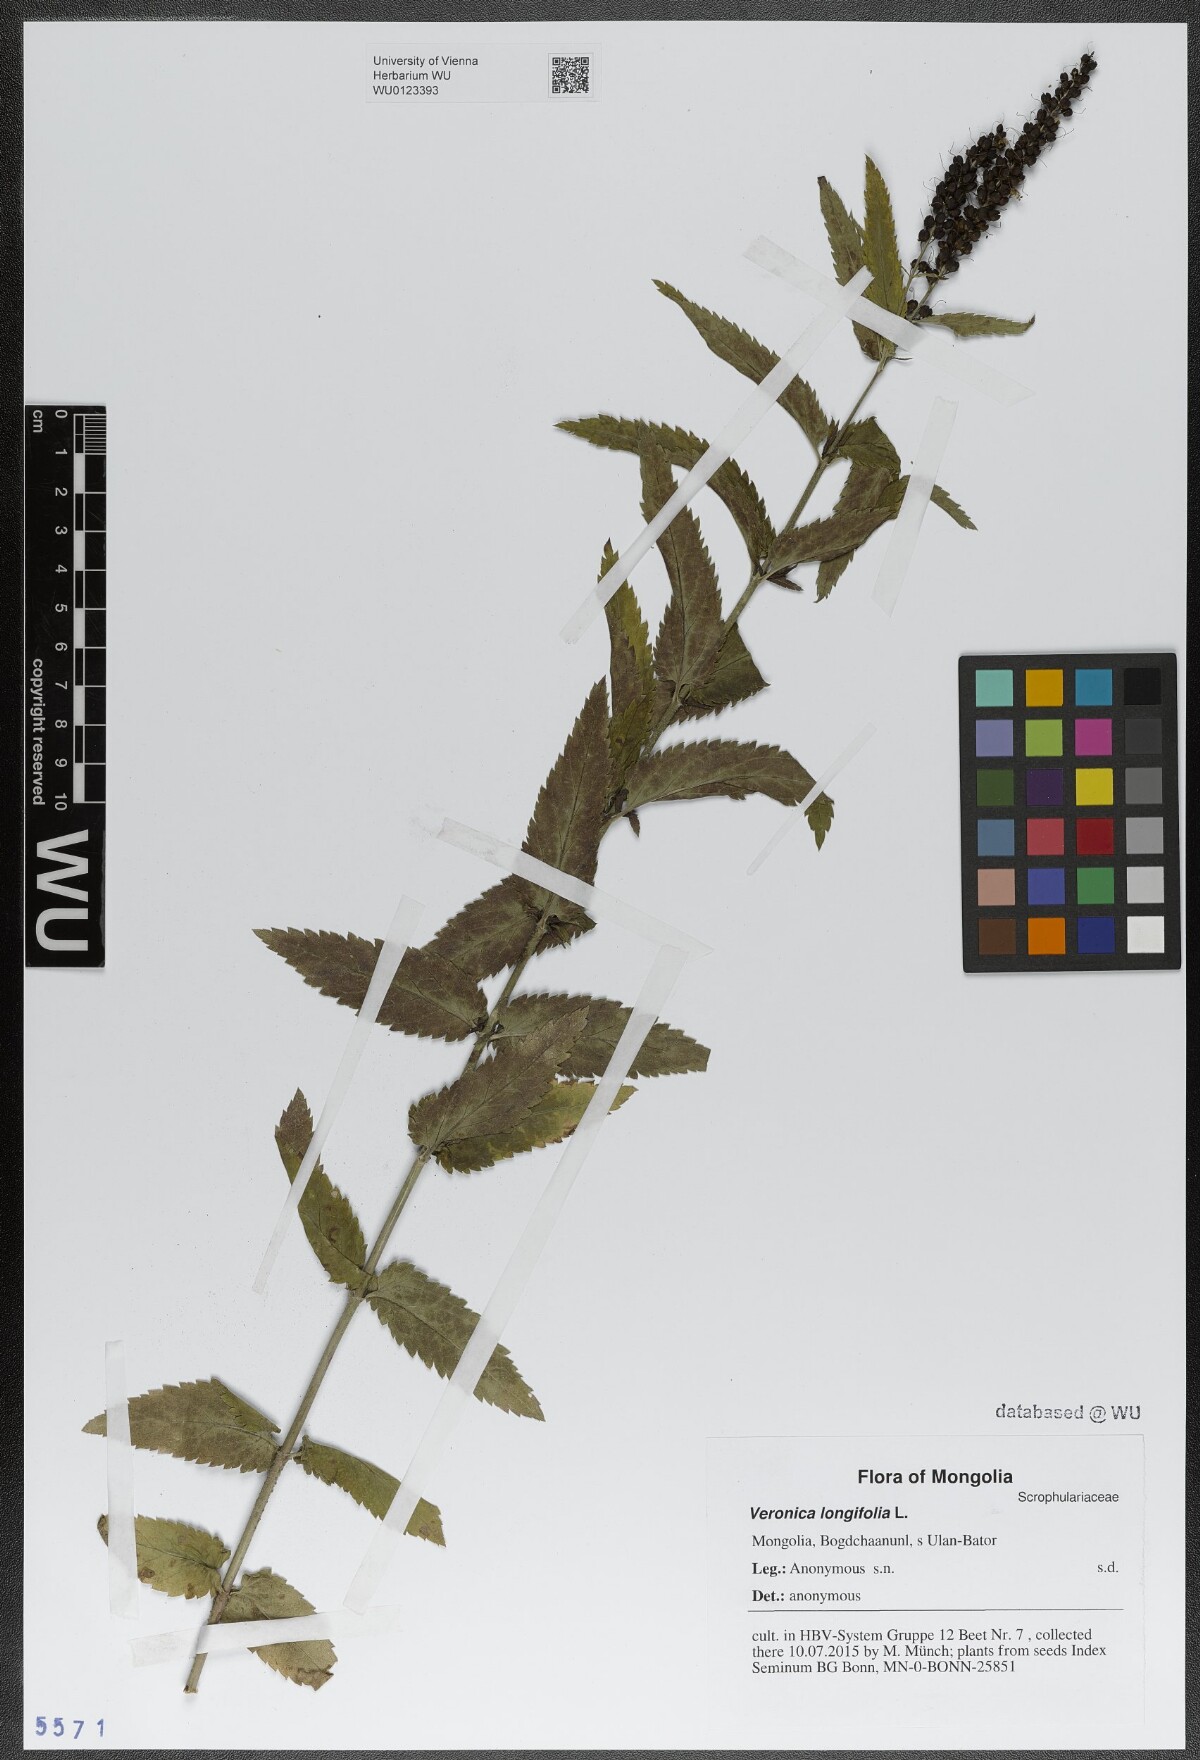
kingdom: Plantae
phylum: Tracheophyta
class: Magnoliopsida
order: Lamiales
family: Plantaginaceae
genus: Veronica
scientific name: Veronica longifolia
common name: Garden speedwell
